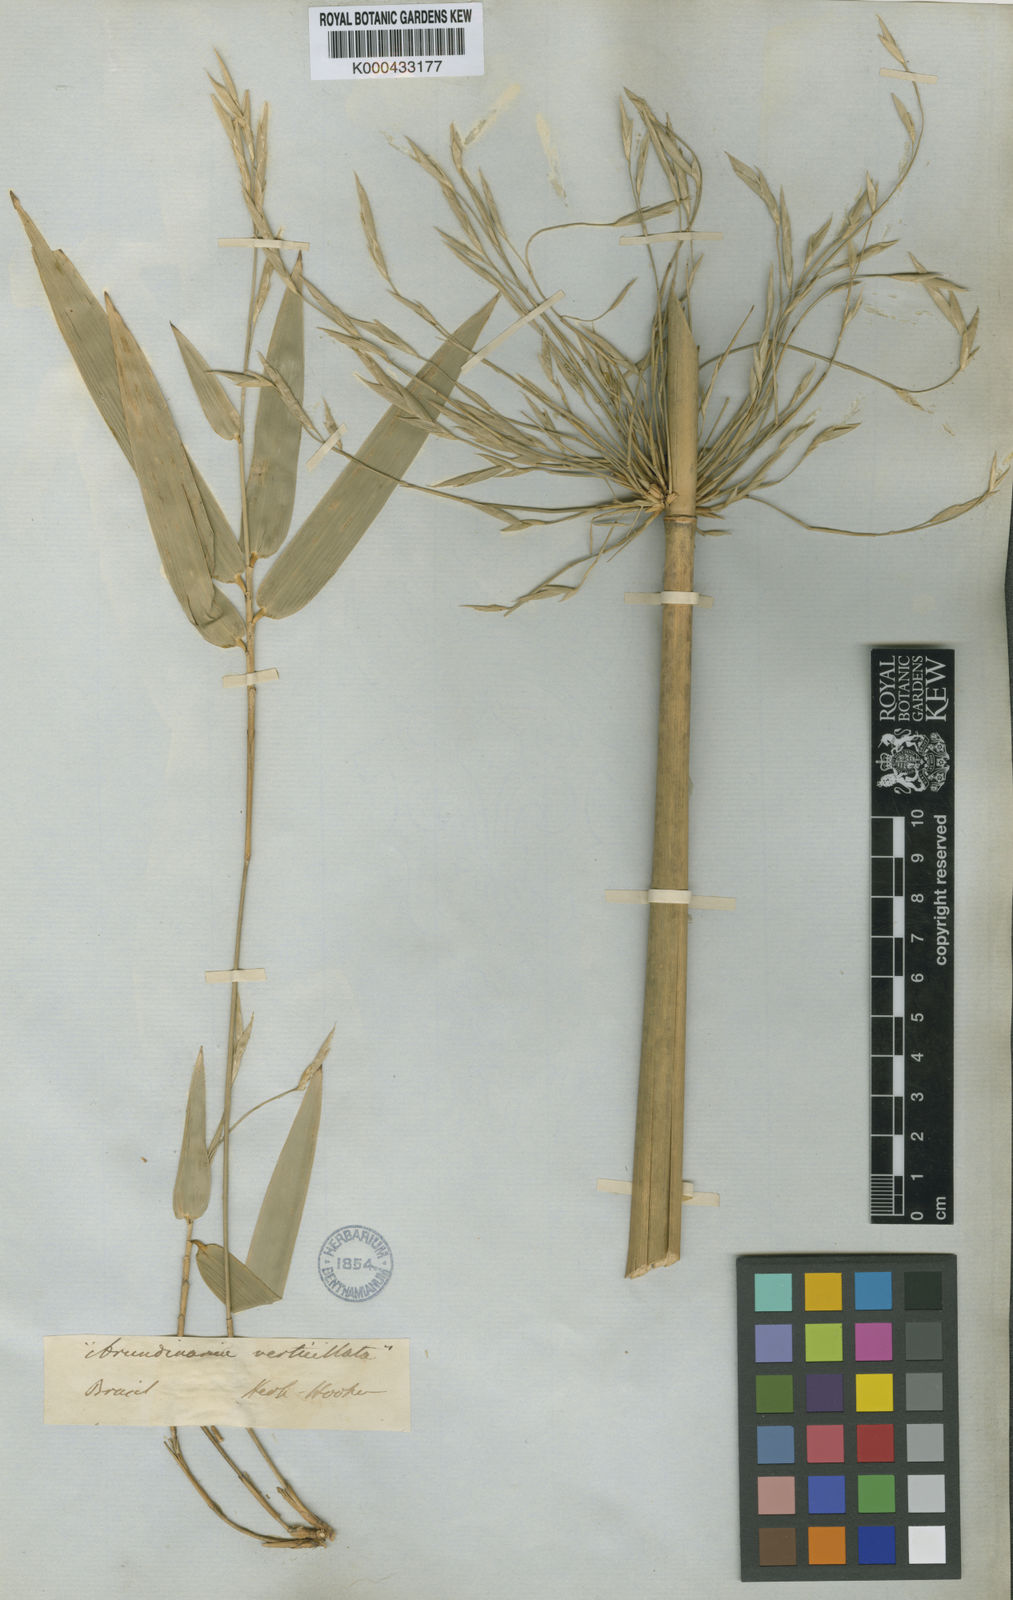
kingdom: Plantae
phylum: Tracheophyta
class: Liliopsida
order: Poales
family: Poaceae
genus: Actinocladum
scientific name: Actinocladum verticillatum
